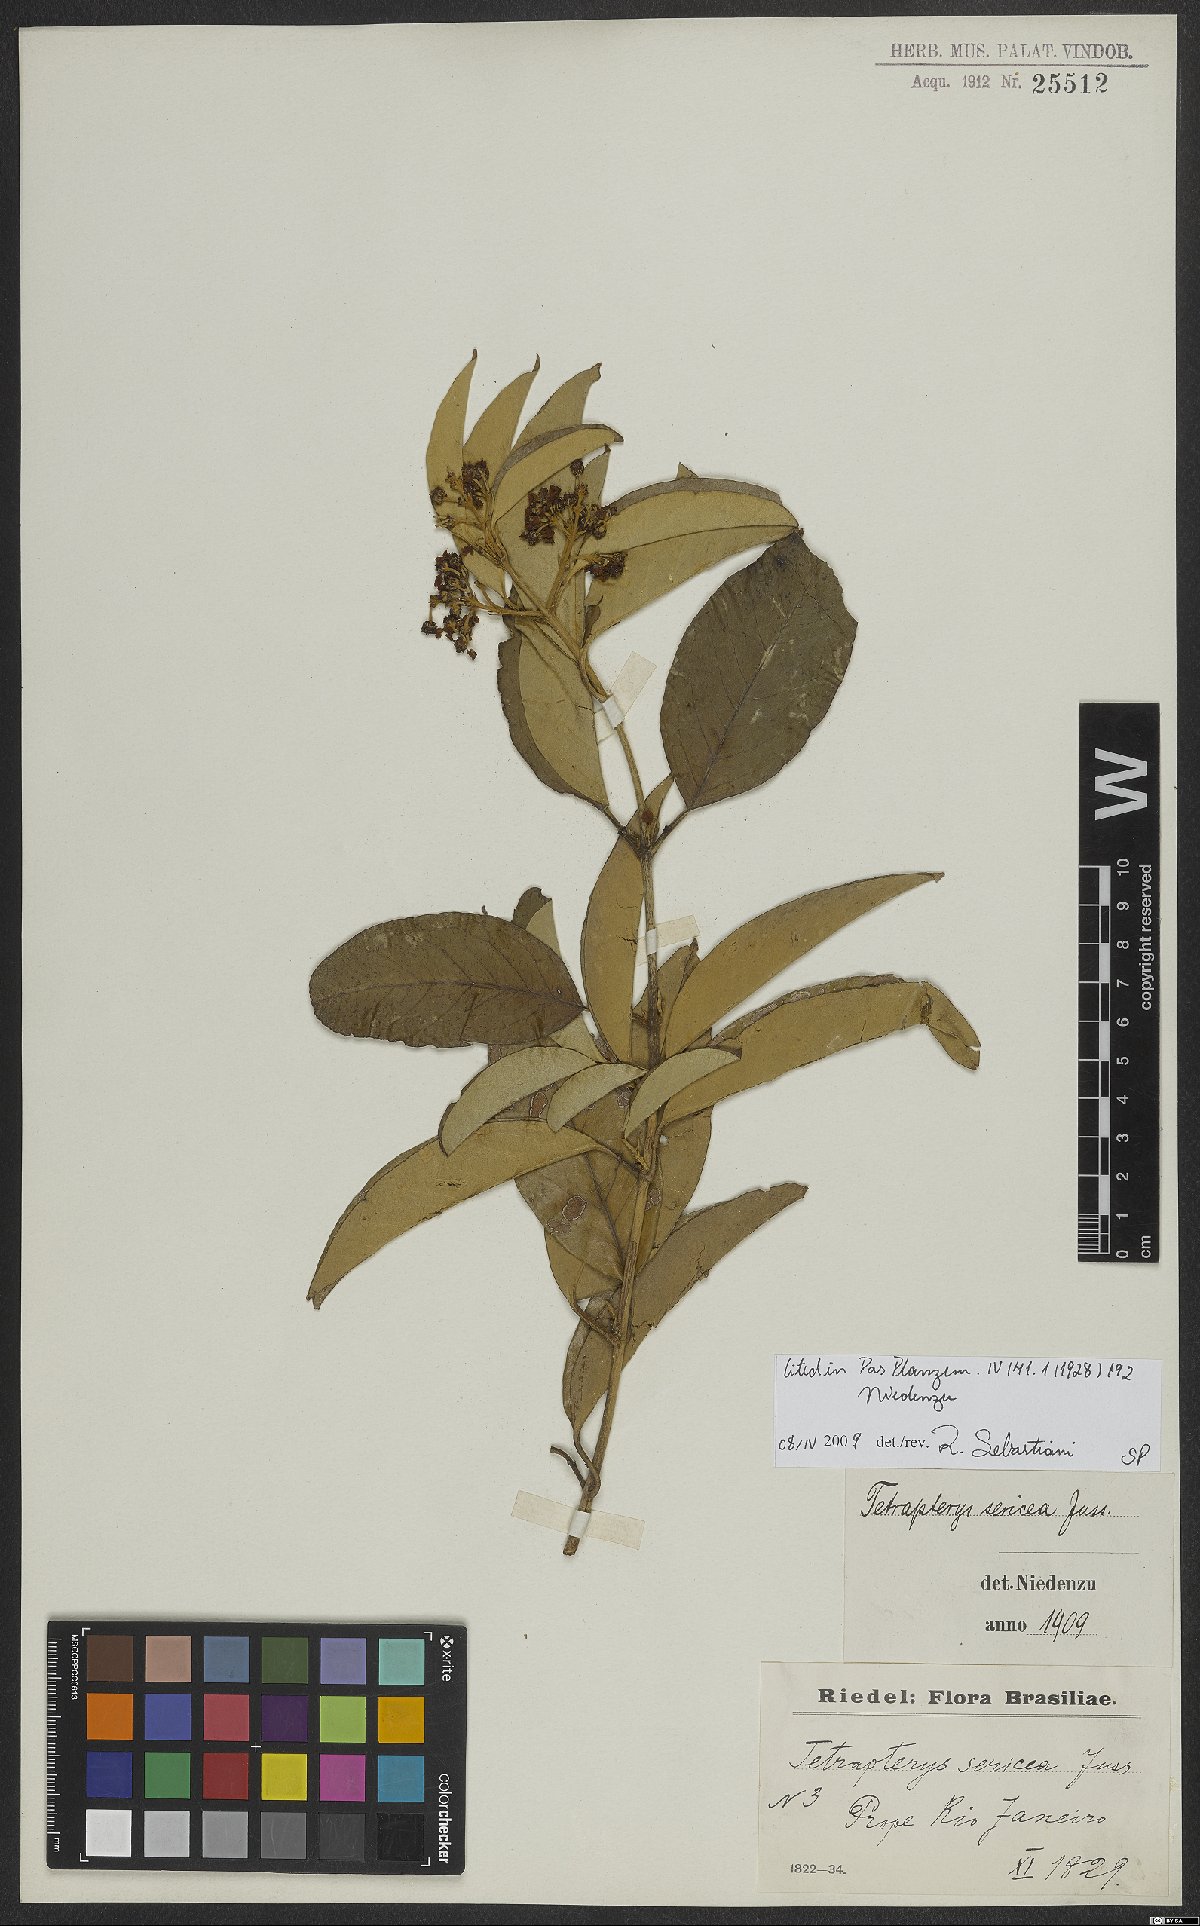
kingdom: Plantae
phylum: Tracheophyta
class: Magnoliopsida
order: Malpighiales
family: Malpighiaceae
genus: Niedenzuella
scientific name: Niedenzuella sericea
